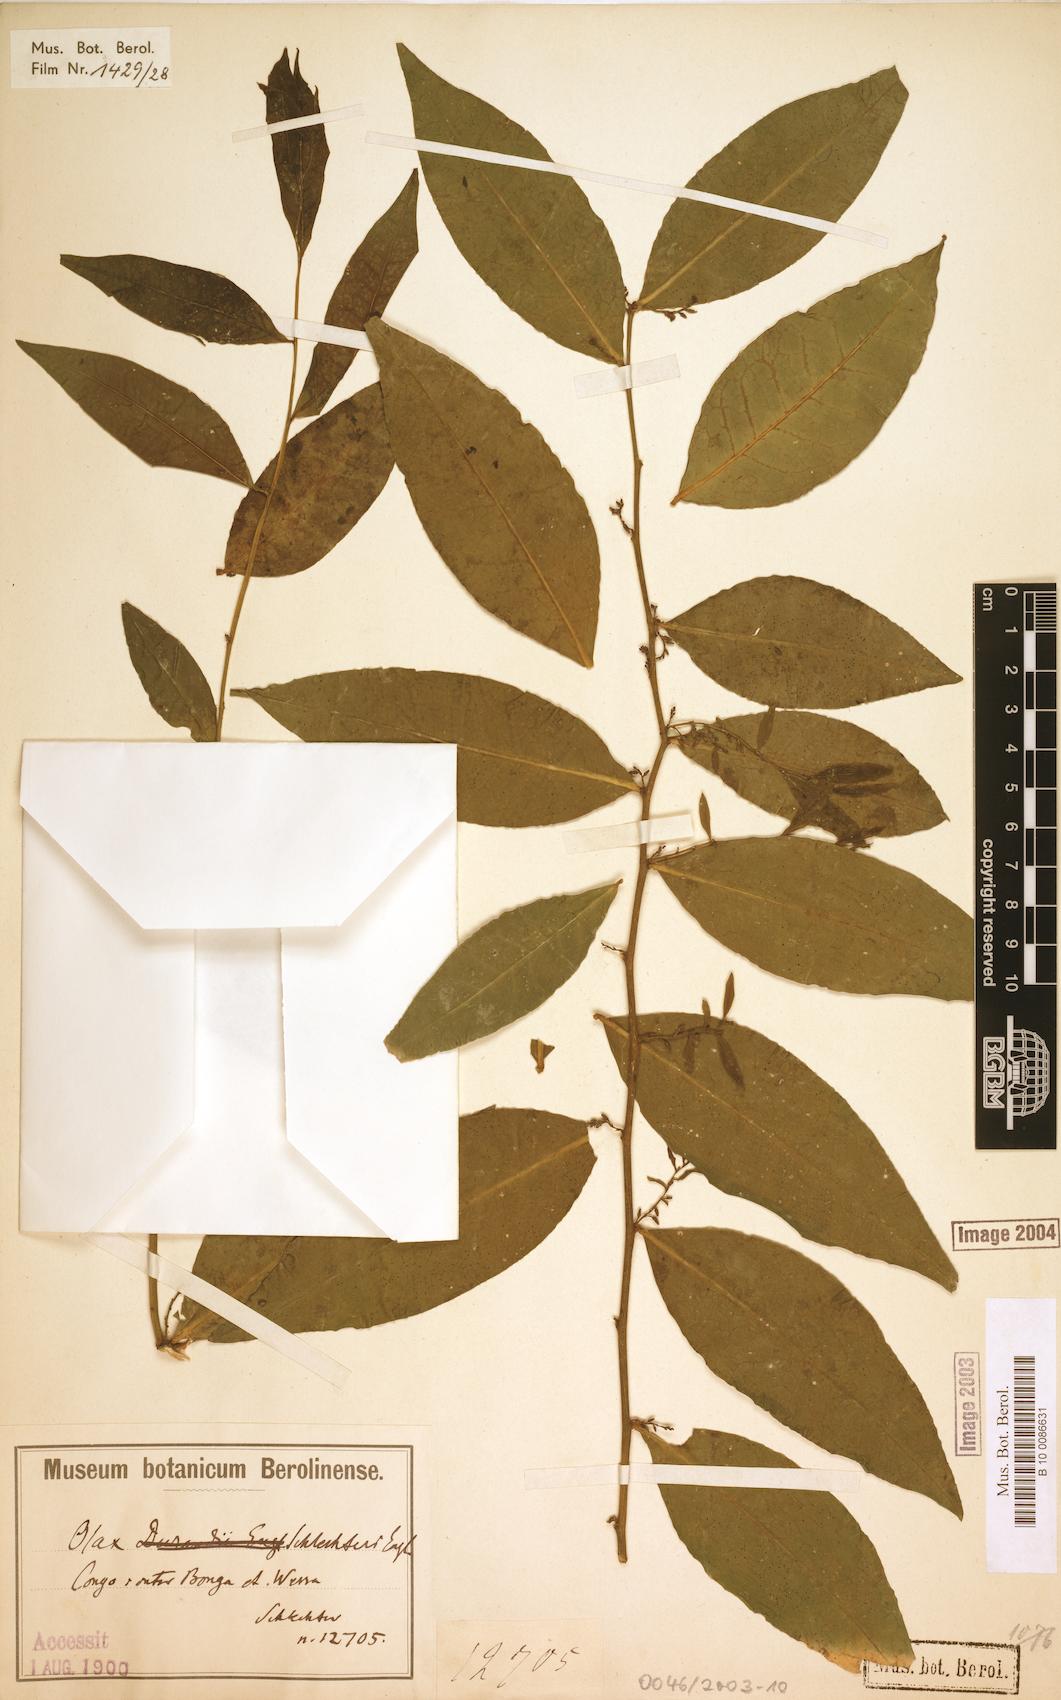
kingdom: Plantae
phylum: Tracheophyta
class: Magnoliopsida
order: Santalales
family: Olacaceae
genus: Olax
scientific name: Olax subscorpioidea
